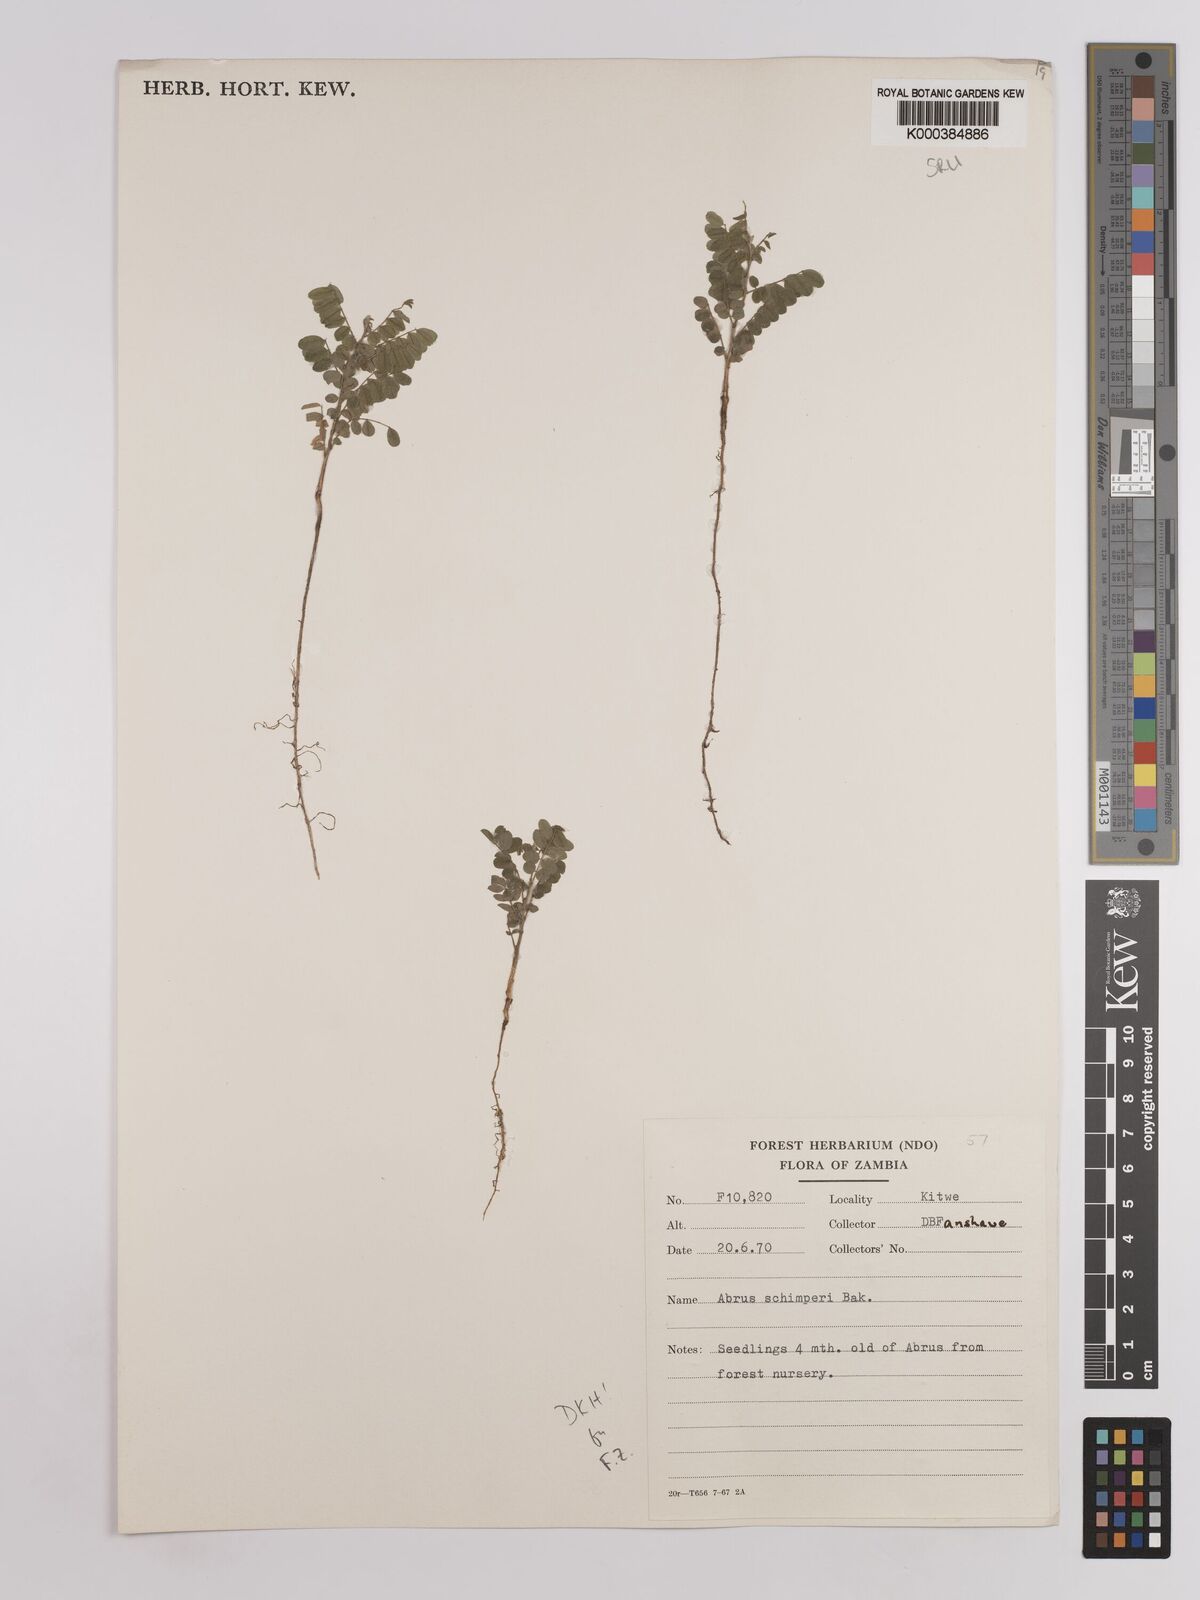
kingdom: Plantae
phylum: Tracheophyta
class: Magnoliopsida
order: Fabales
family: Fabaceae
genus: Abrus
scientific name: Abrus fruticulosus
